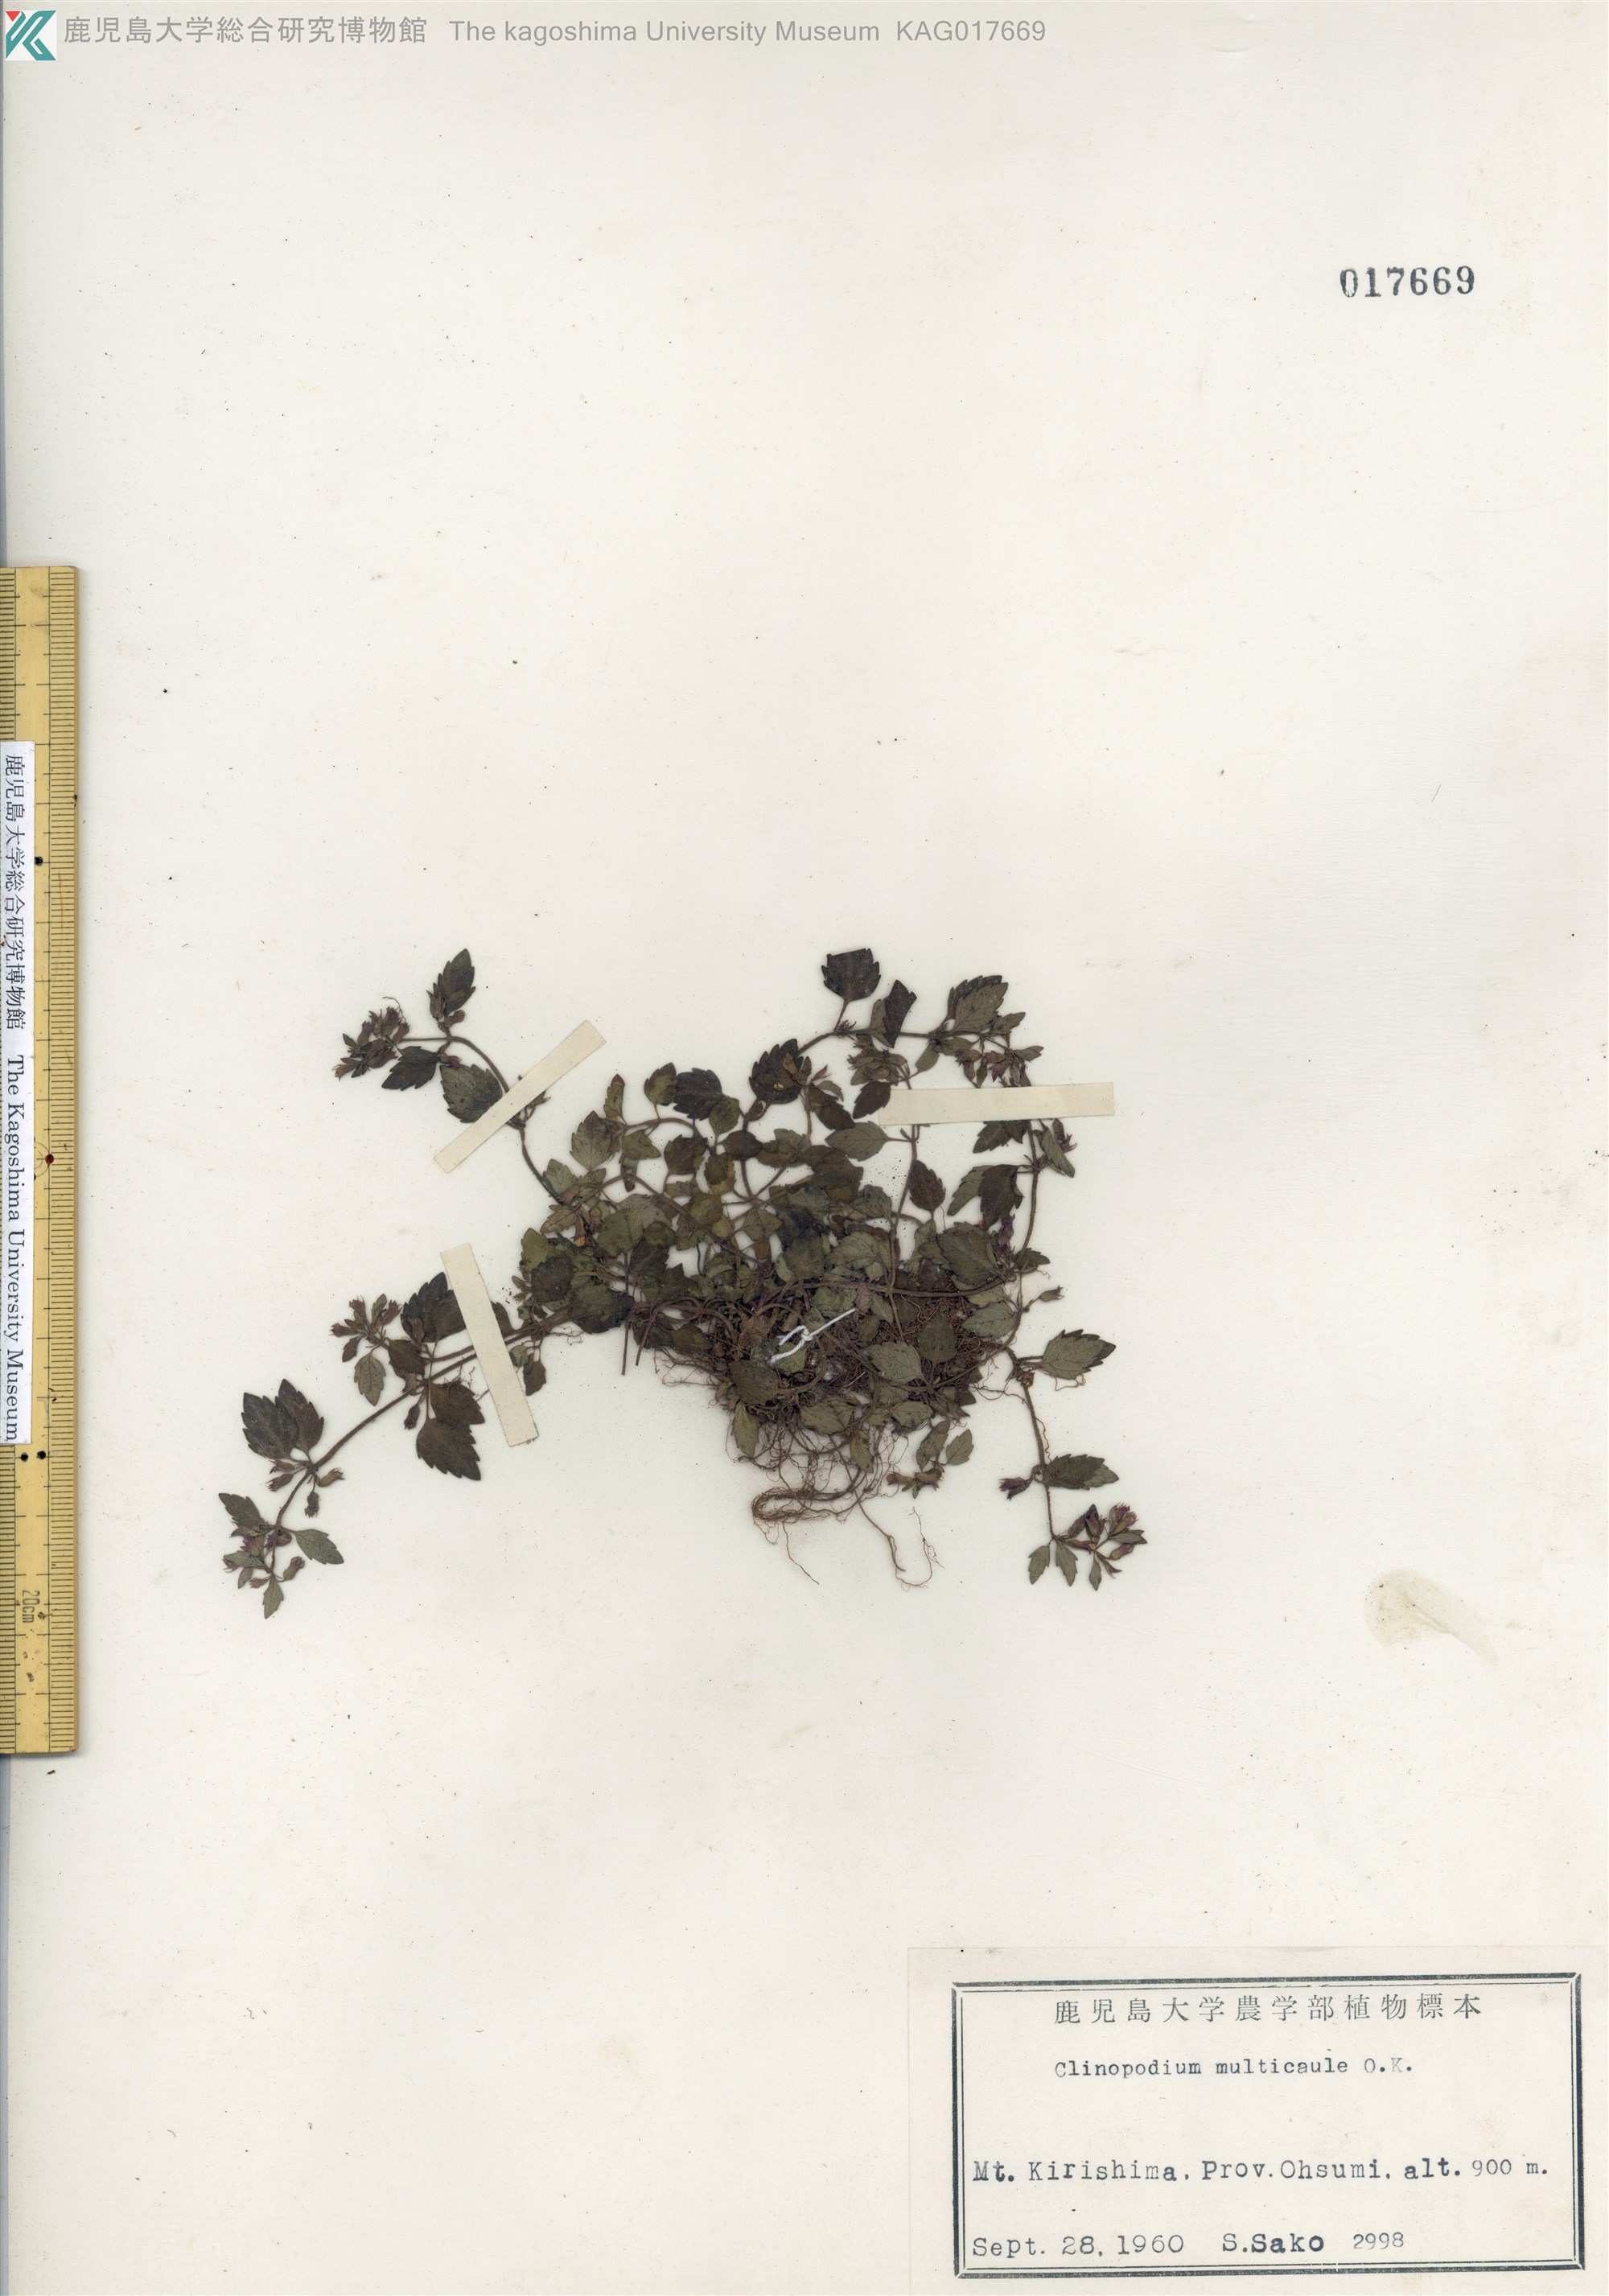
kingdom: Plantae
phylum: Tracheophyta
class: Magnoliopsida
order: Lamiales
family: Lamiaceae
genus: Clinopodium
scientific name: Clinopodium multicaule
